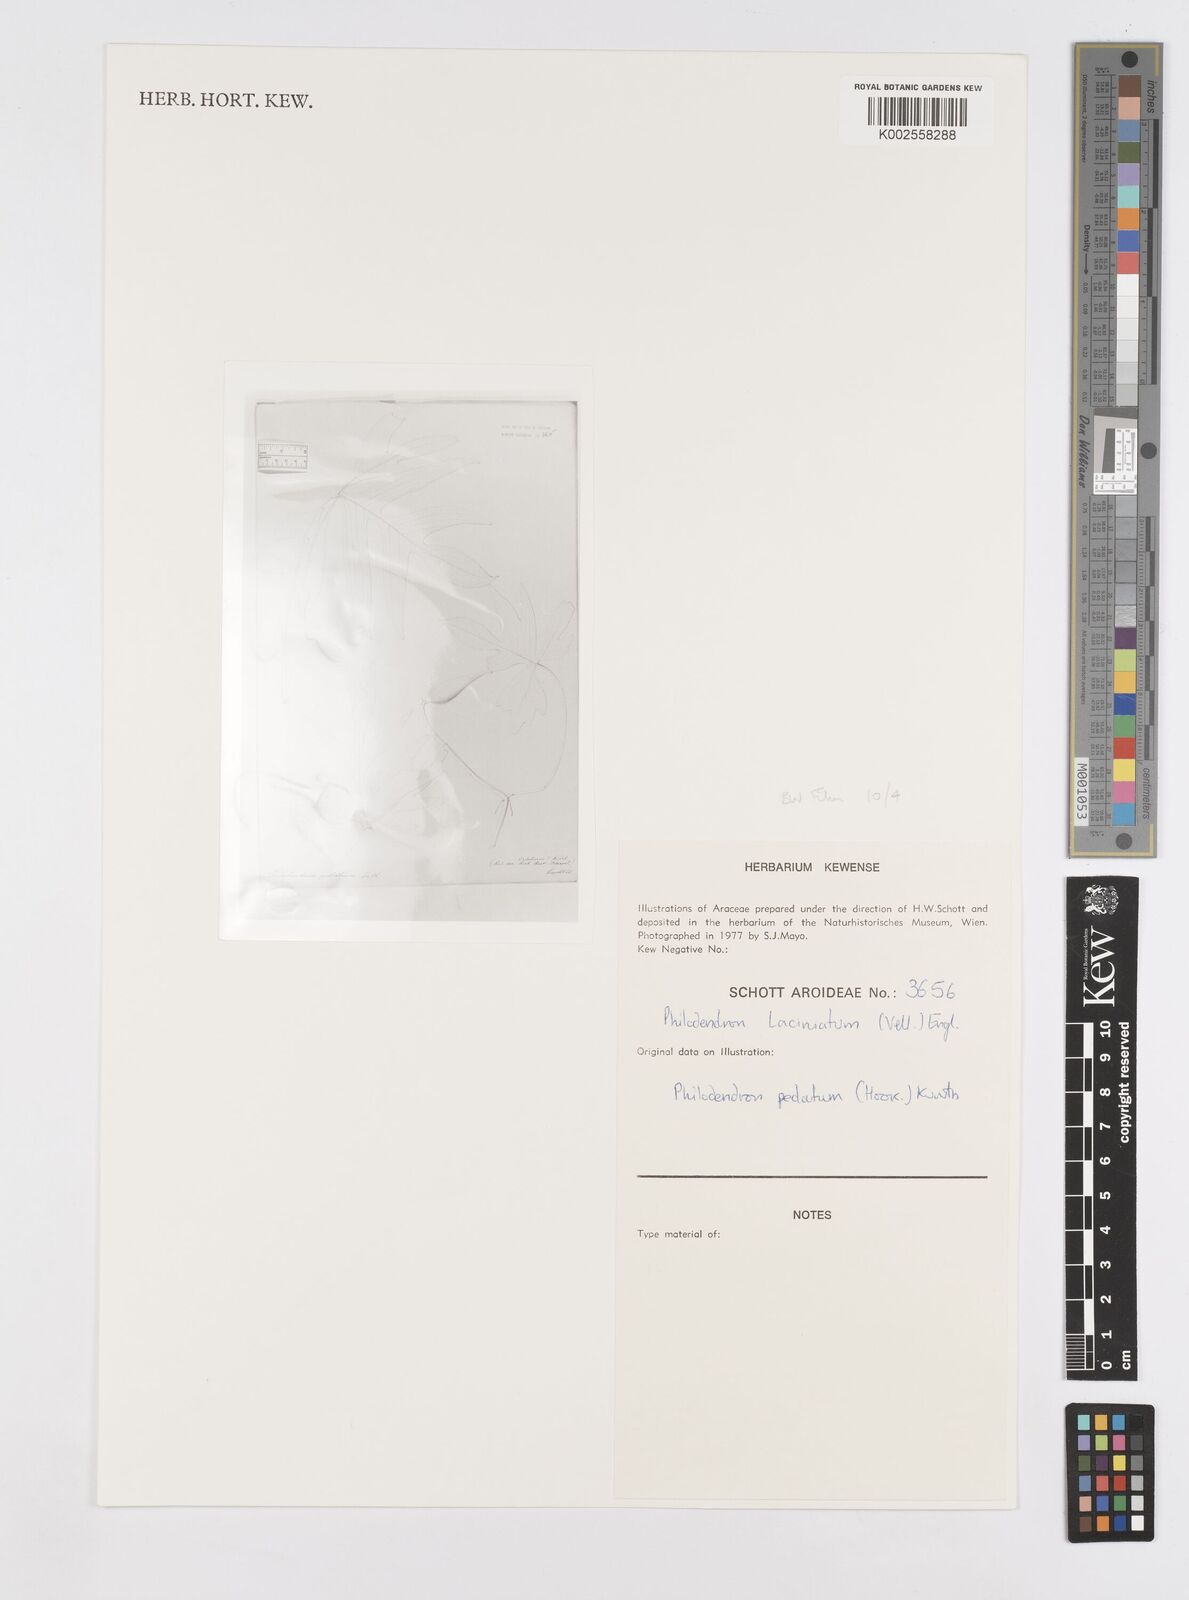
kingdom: Plantae
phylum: Tracheophyta
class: Liliopsida
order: Alismatales
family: Araceae
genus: Philodendron
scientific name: Philodendron pedatum
